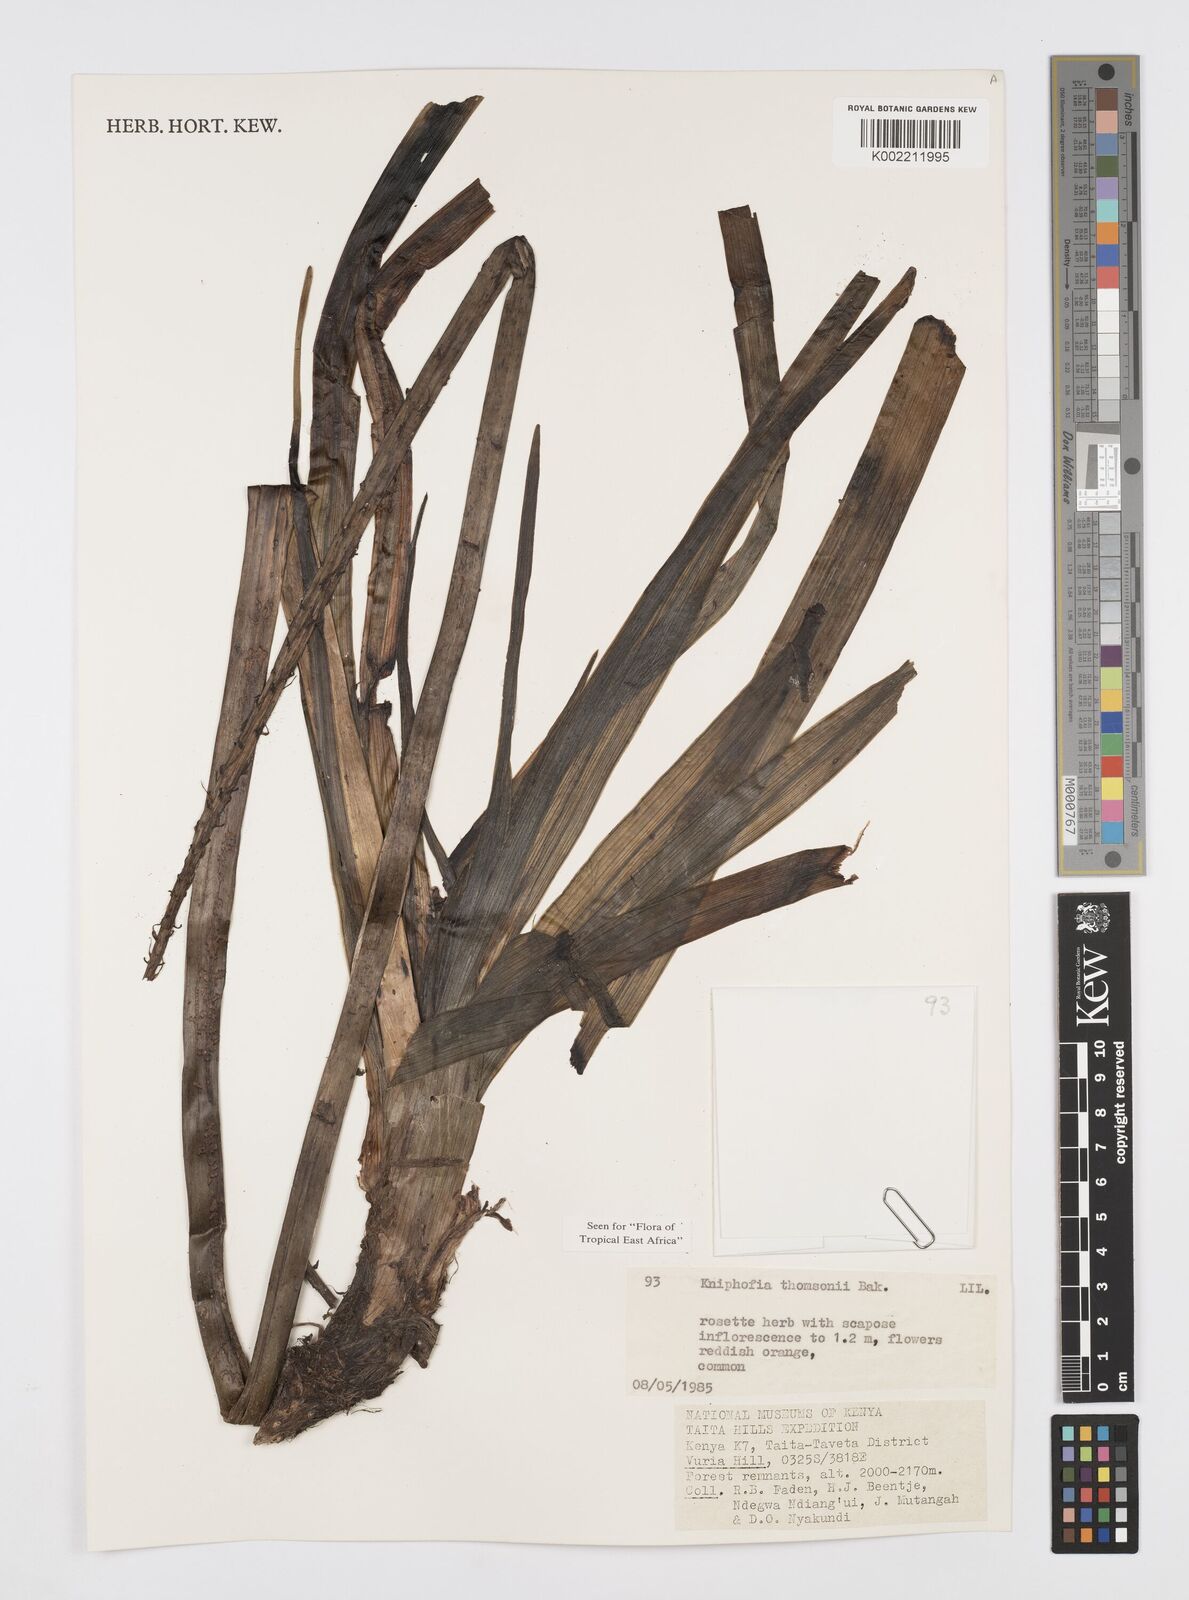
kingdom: Plantae
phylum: Tracheophyta
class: Liliopsida
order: Asparagales
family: Asphodelaceae
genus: Kniphofia
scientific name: Kniphofia thomsonii
